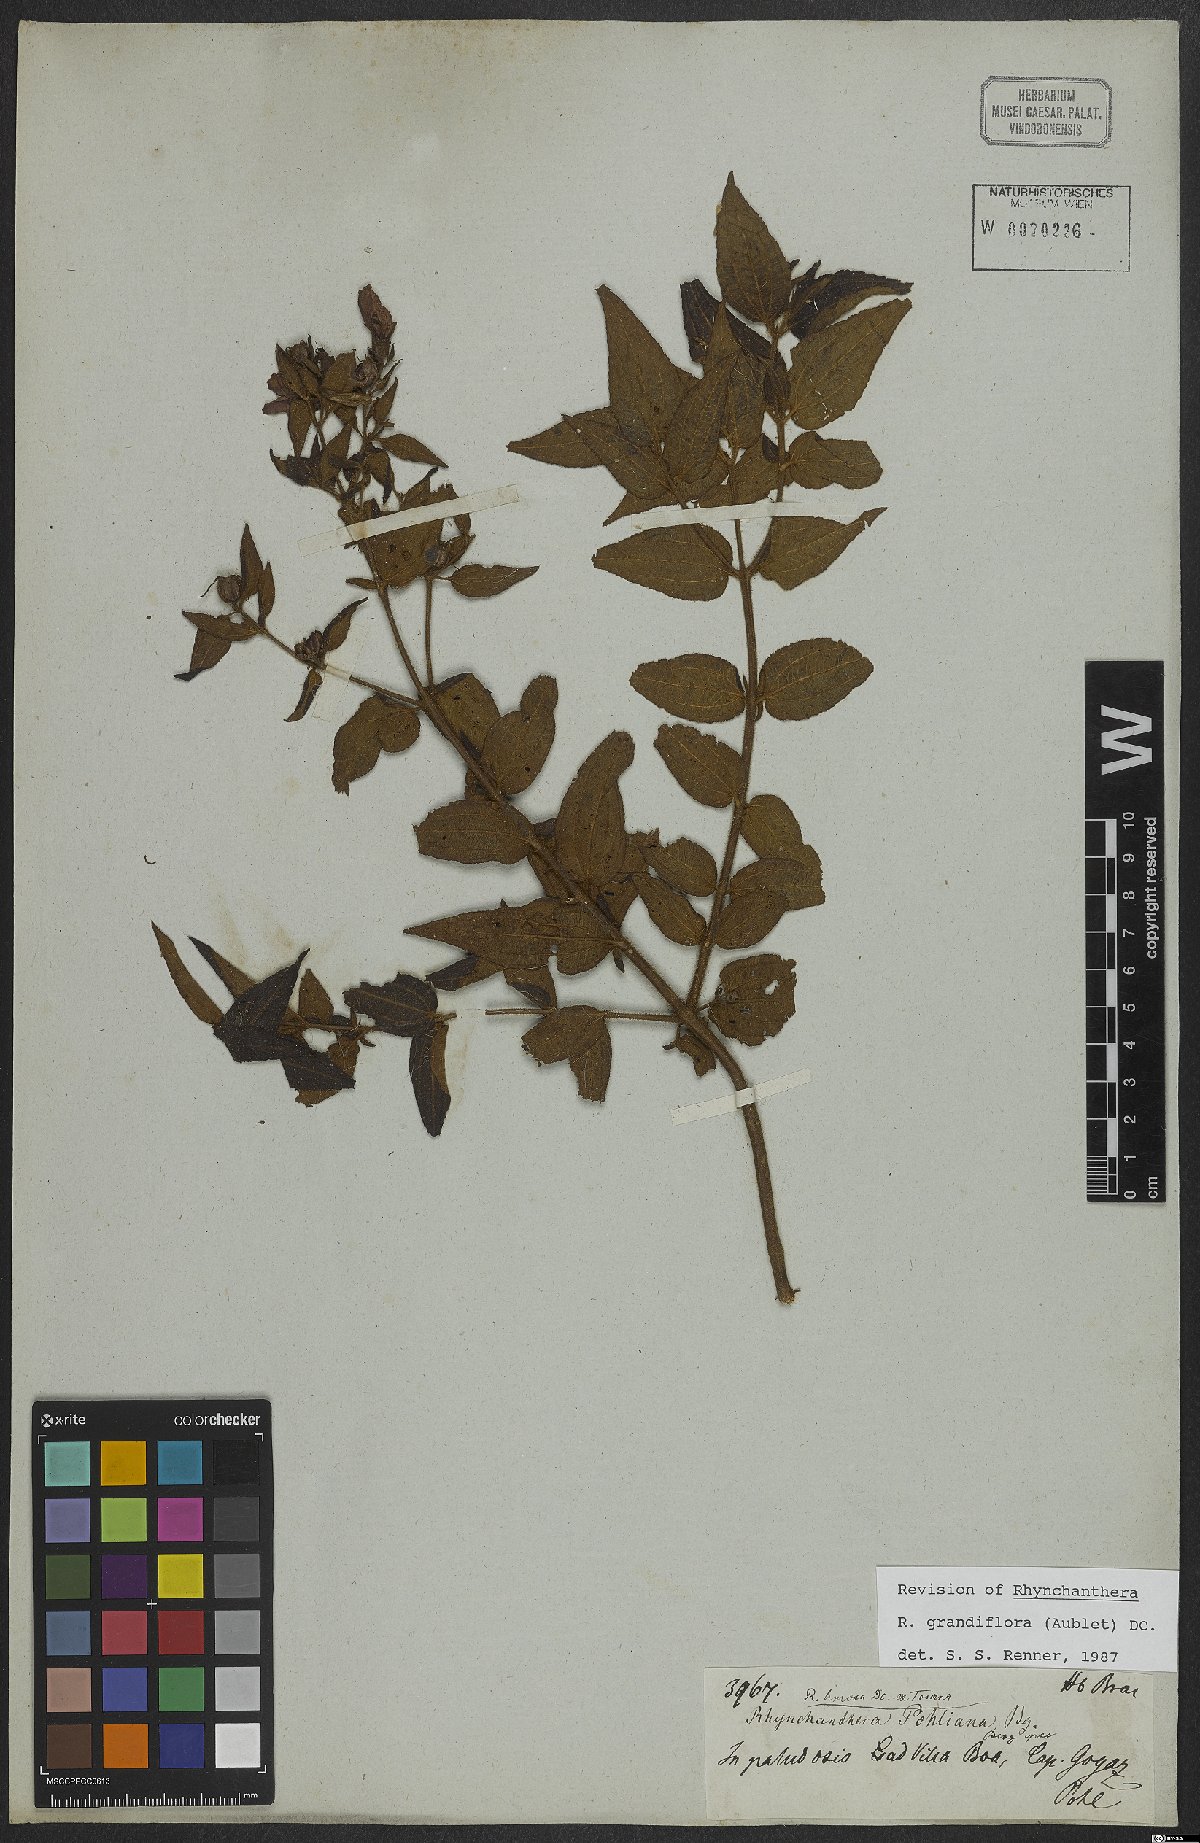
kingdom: Plantae
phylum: Tracheophyta
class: Magnoliopsida
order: Myrtales
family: Melastomataceae
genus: Rhynchanthera
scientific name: Rhynchanthera grandiflora
